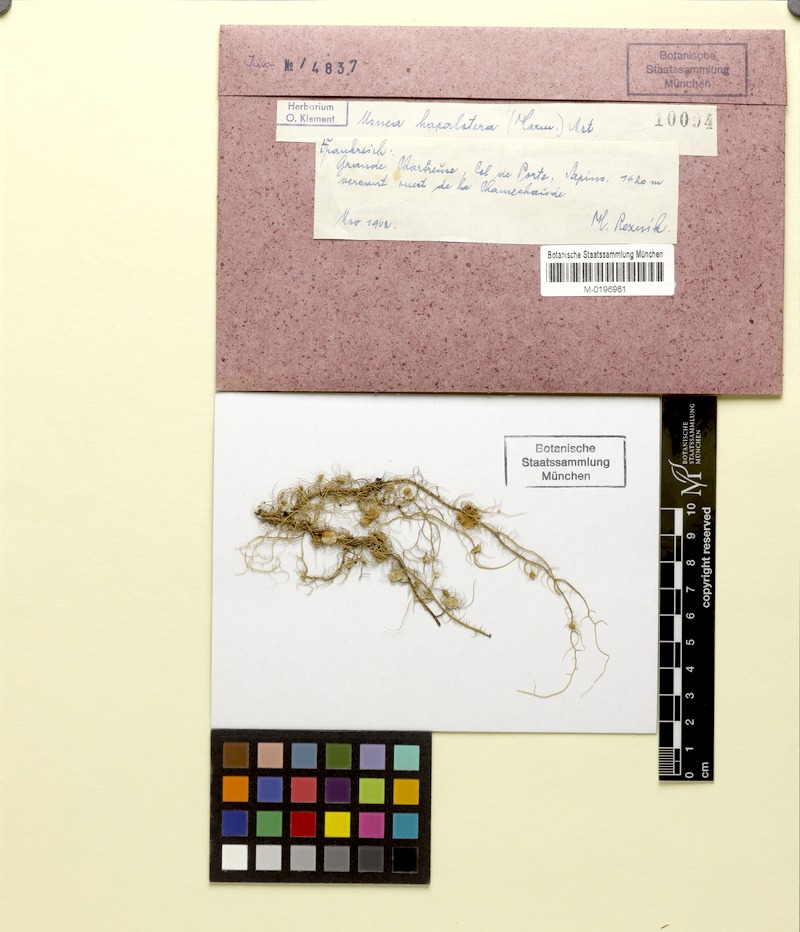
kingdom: Fungi
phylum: Ascomycota
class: Lecanoromycetes
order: Lecanorales
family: Parmeliaceae
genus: Usnea
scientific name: Usnea intermedia
